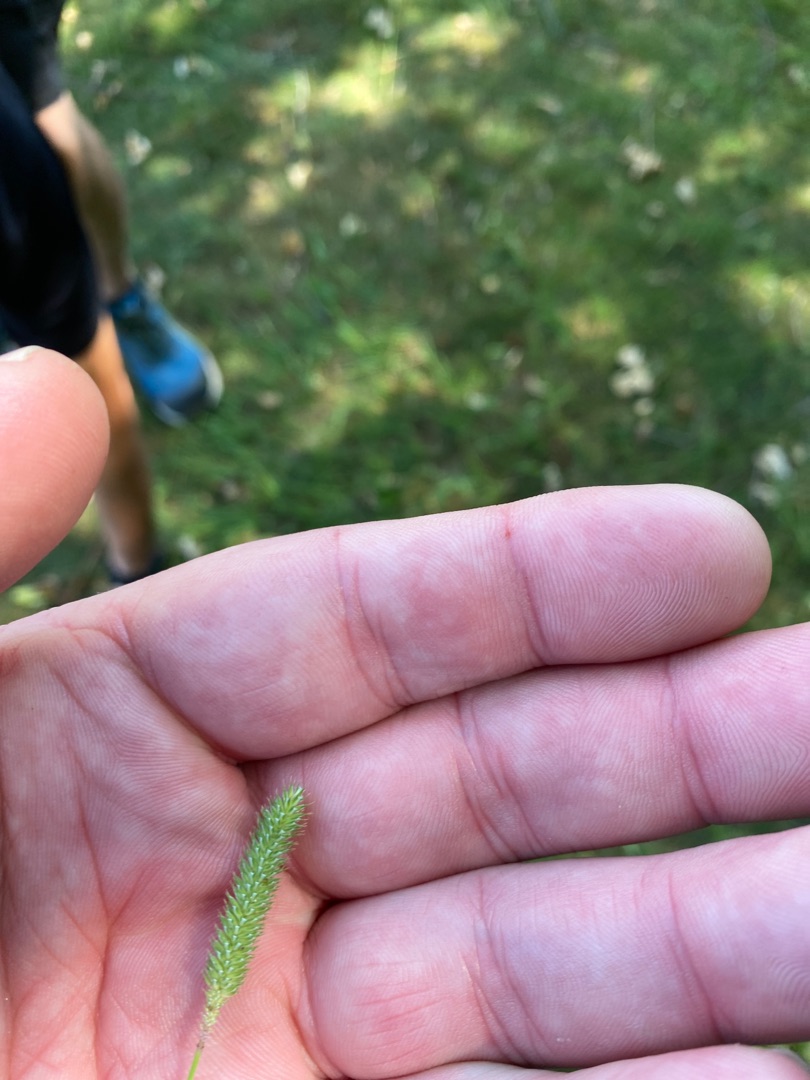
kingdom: Plantae
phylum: Tracheophyta
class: Liliopsida
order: Poales
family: Poaceae
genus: Phleum
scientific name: Phleum
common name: Rottehaleslægten
